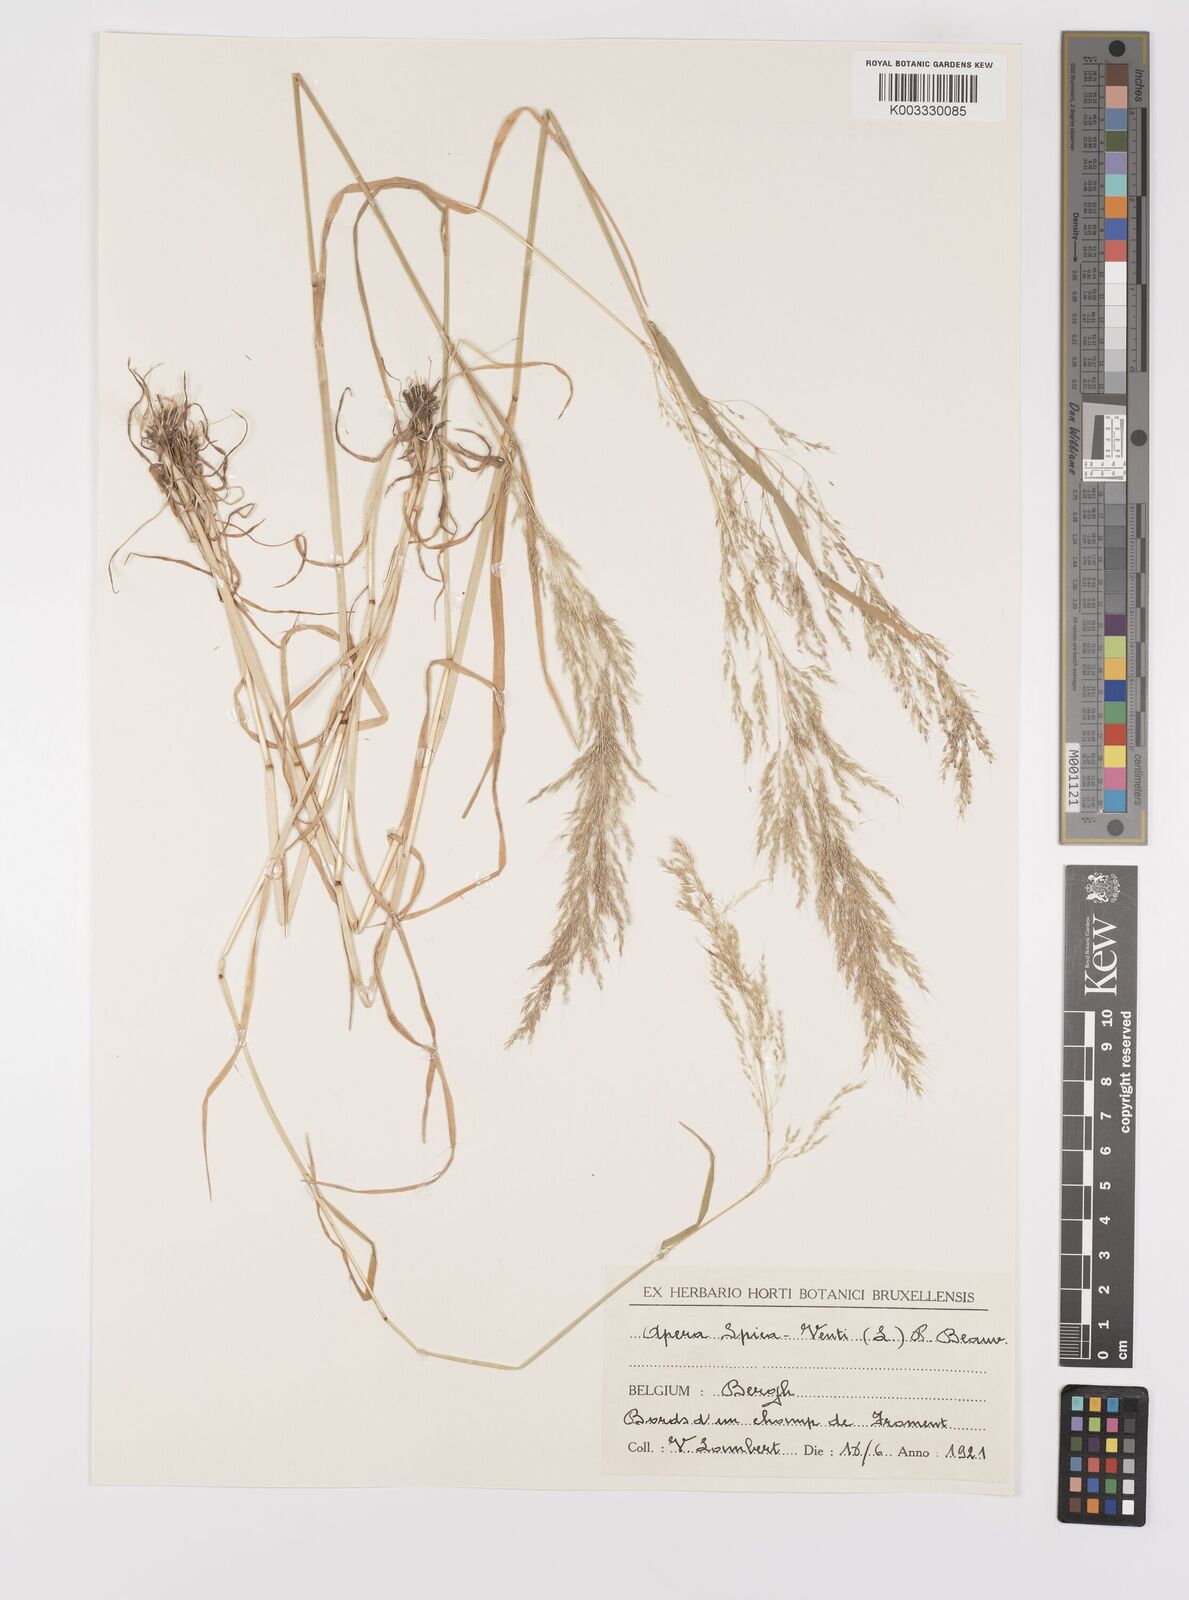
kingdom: Plantae
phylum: Tracheophyta
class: Liliopsida
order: Poales
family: Poaceae
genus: Apera
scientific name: Apera spica-venti
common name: Loose silky-bent
